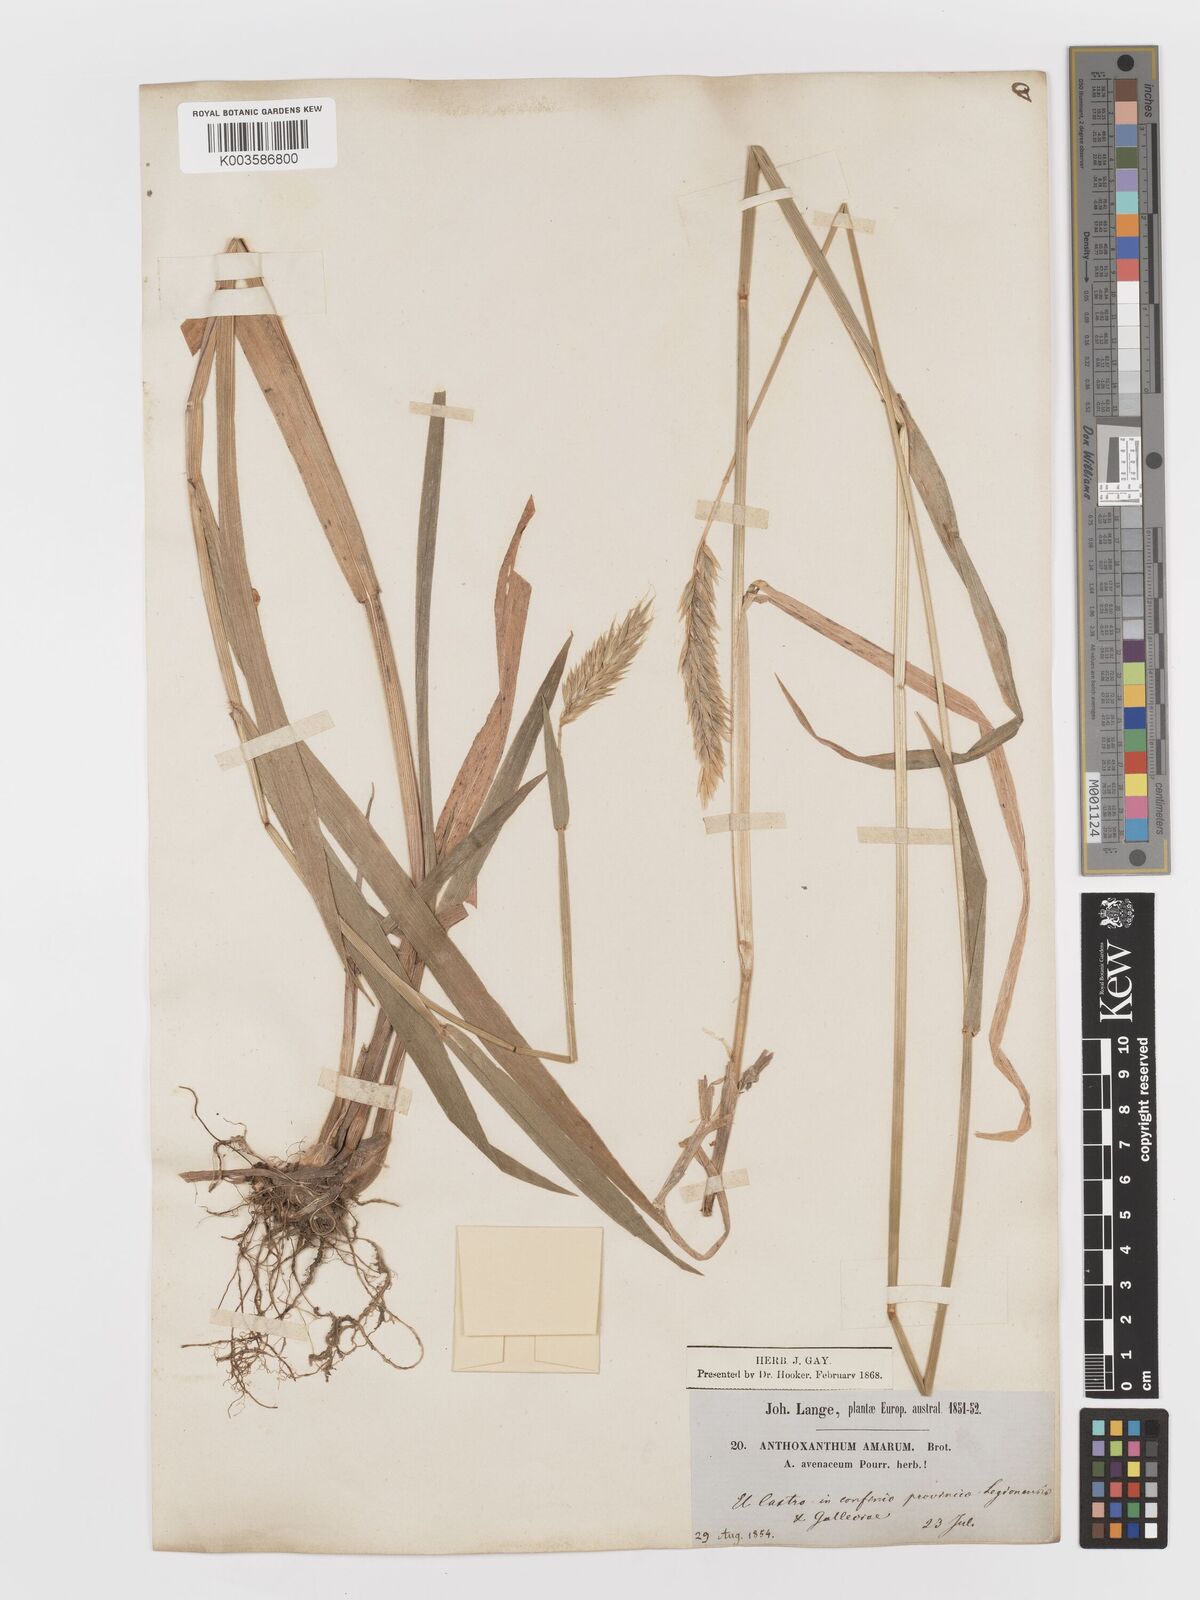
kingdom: Plantae
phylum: Tracheophyta
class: Liliopsida
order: Poales
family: Poaceae
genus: Anthoxanthum
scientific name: Anthoxanthum amarum
